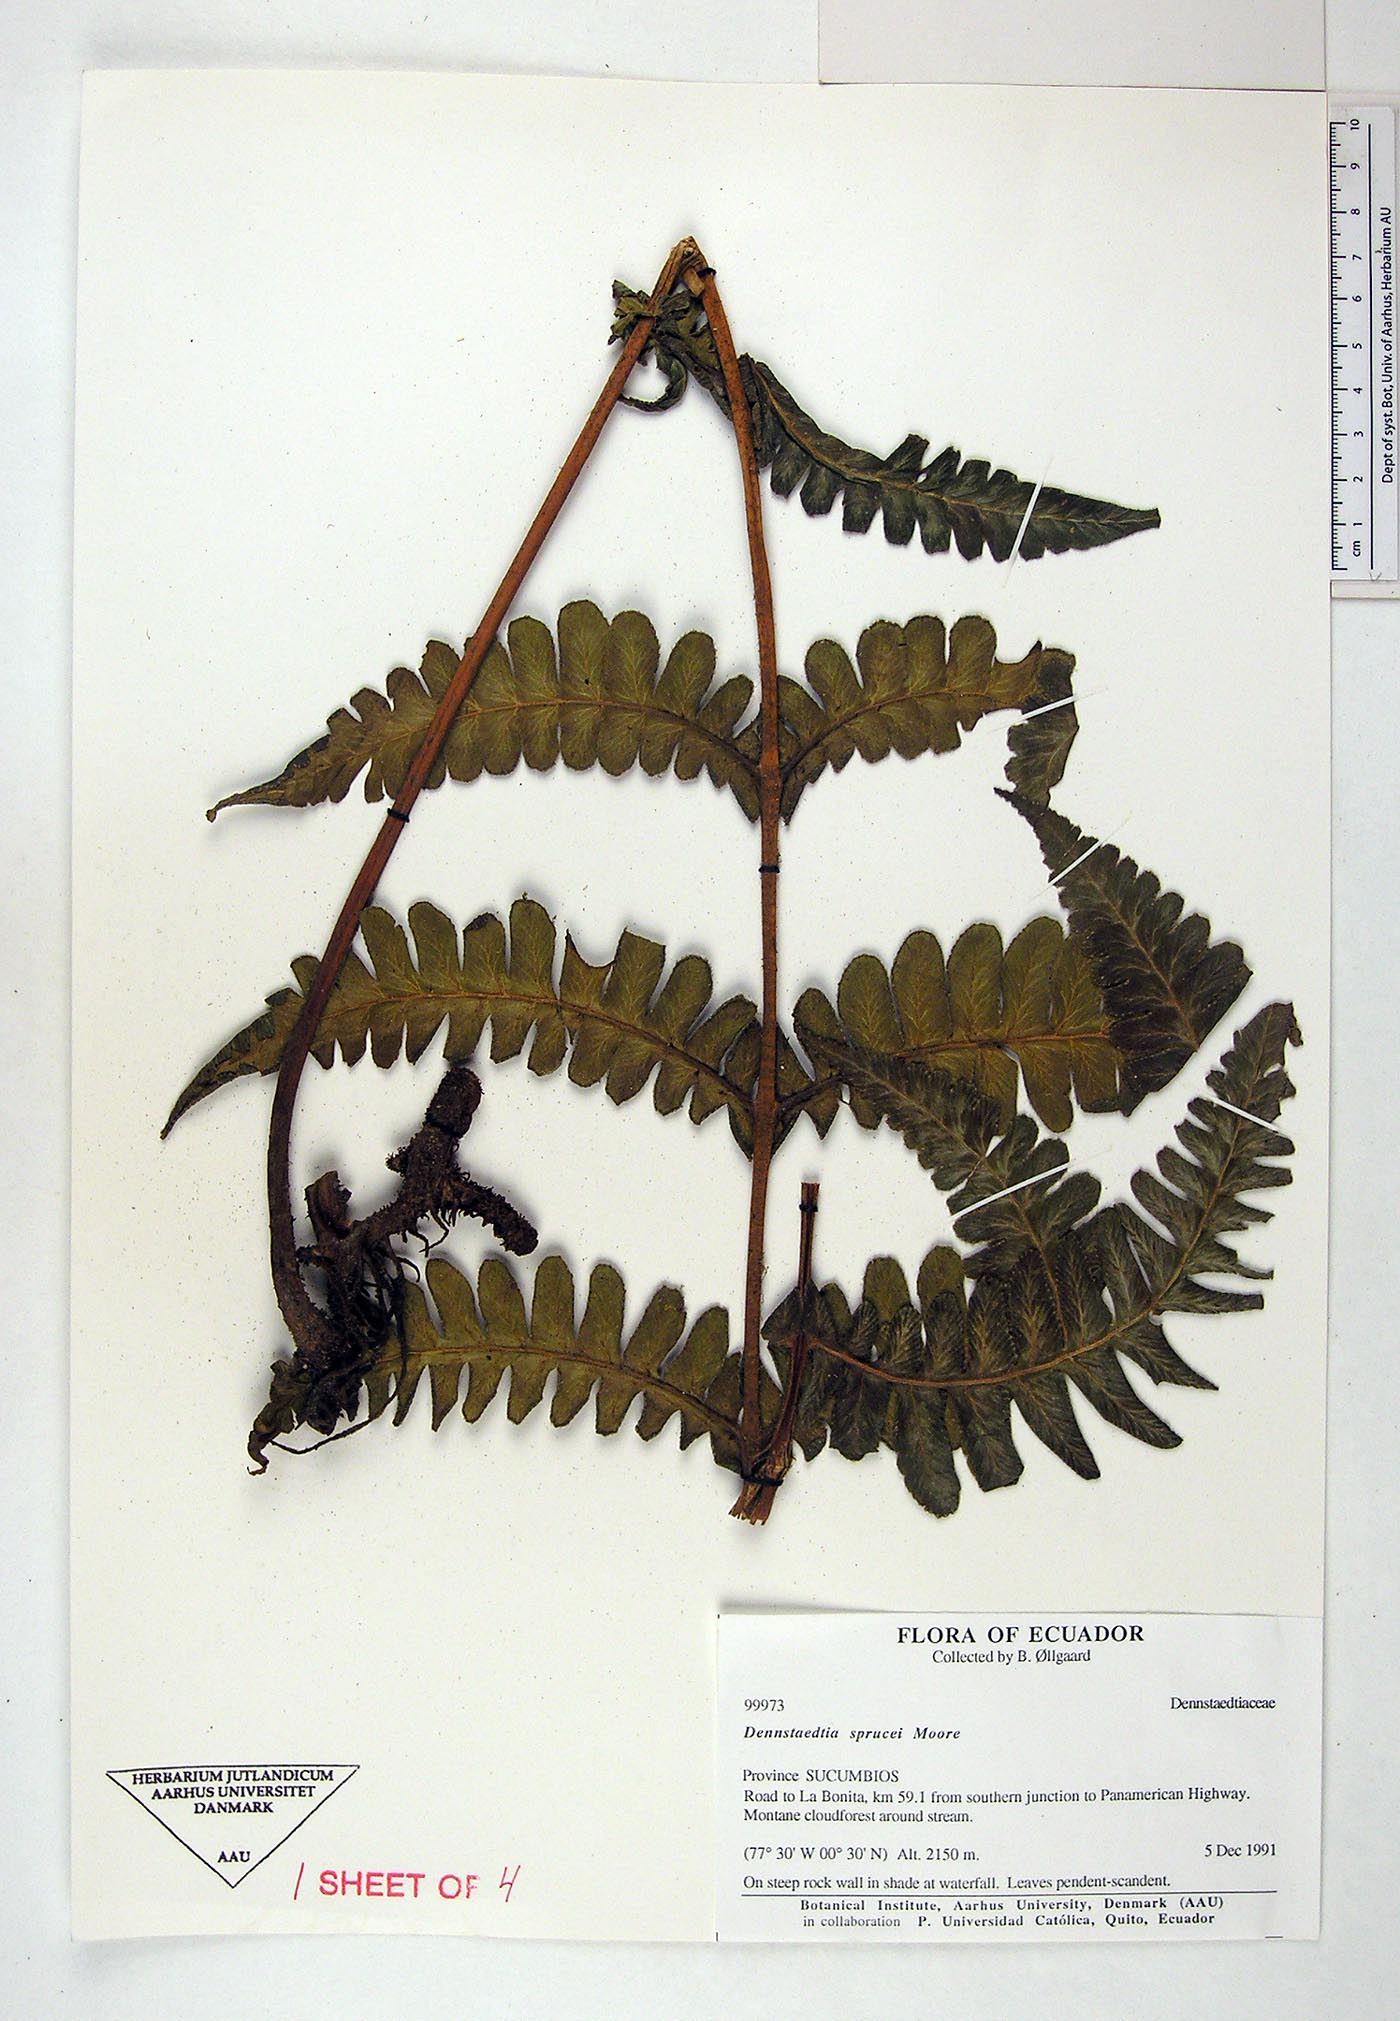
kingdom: Plantae
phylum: Tracheophyta
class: Polypodiopsida
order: Polypodiales
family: Dennstaedtiaceae
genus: Dennstaedtia
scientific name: Dennstaedtia sprucei
